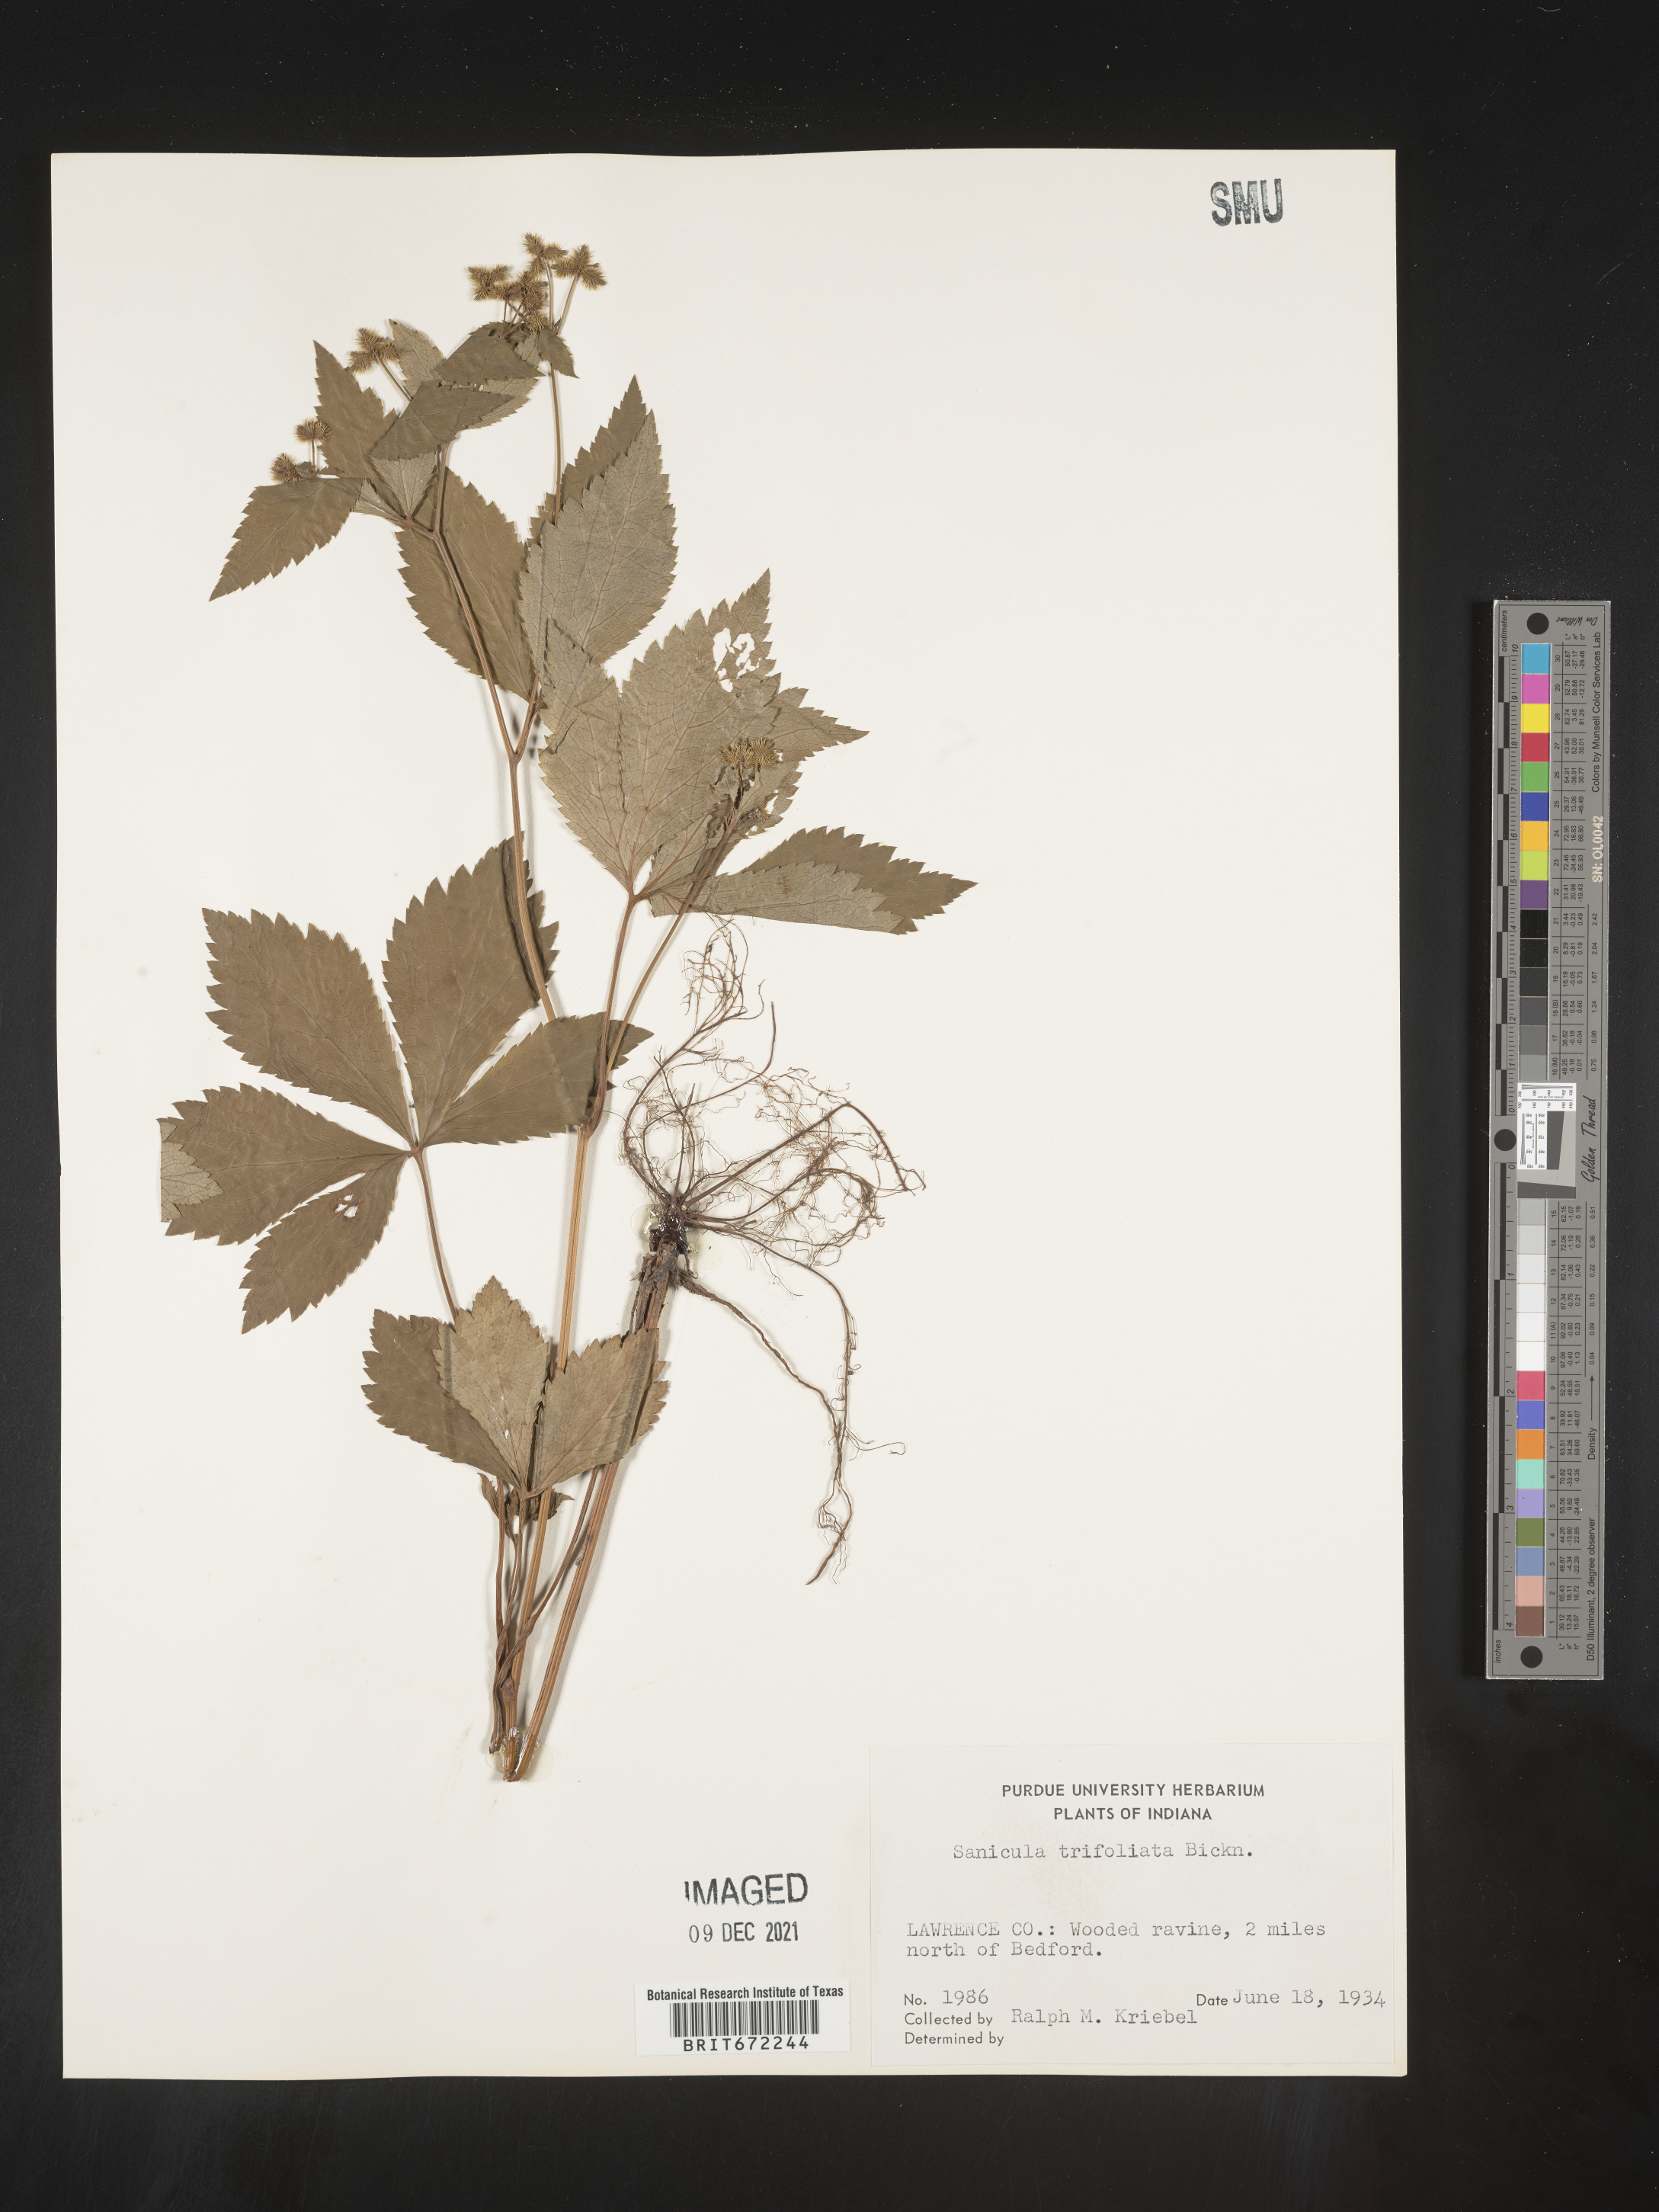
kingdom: Plantae
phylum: Tracheophyta
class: Magnoliopsida
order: Apiales
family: Apiaceae
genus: Sanicula
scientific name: Sanicula
